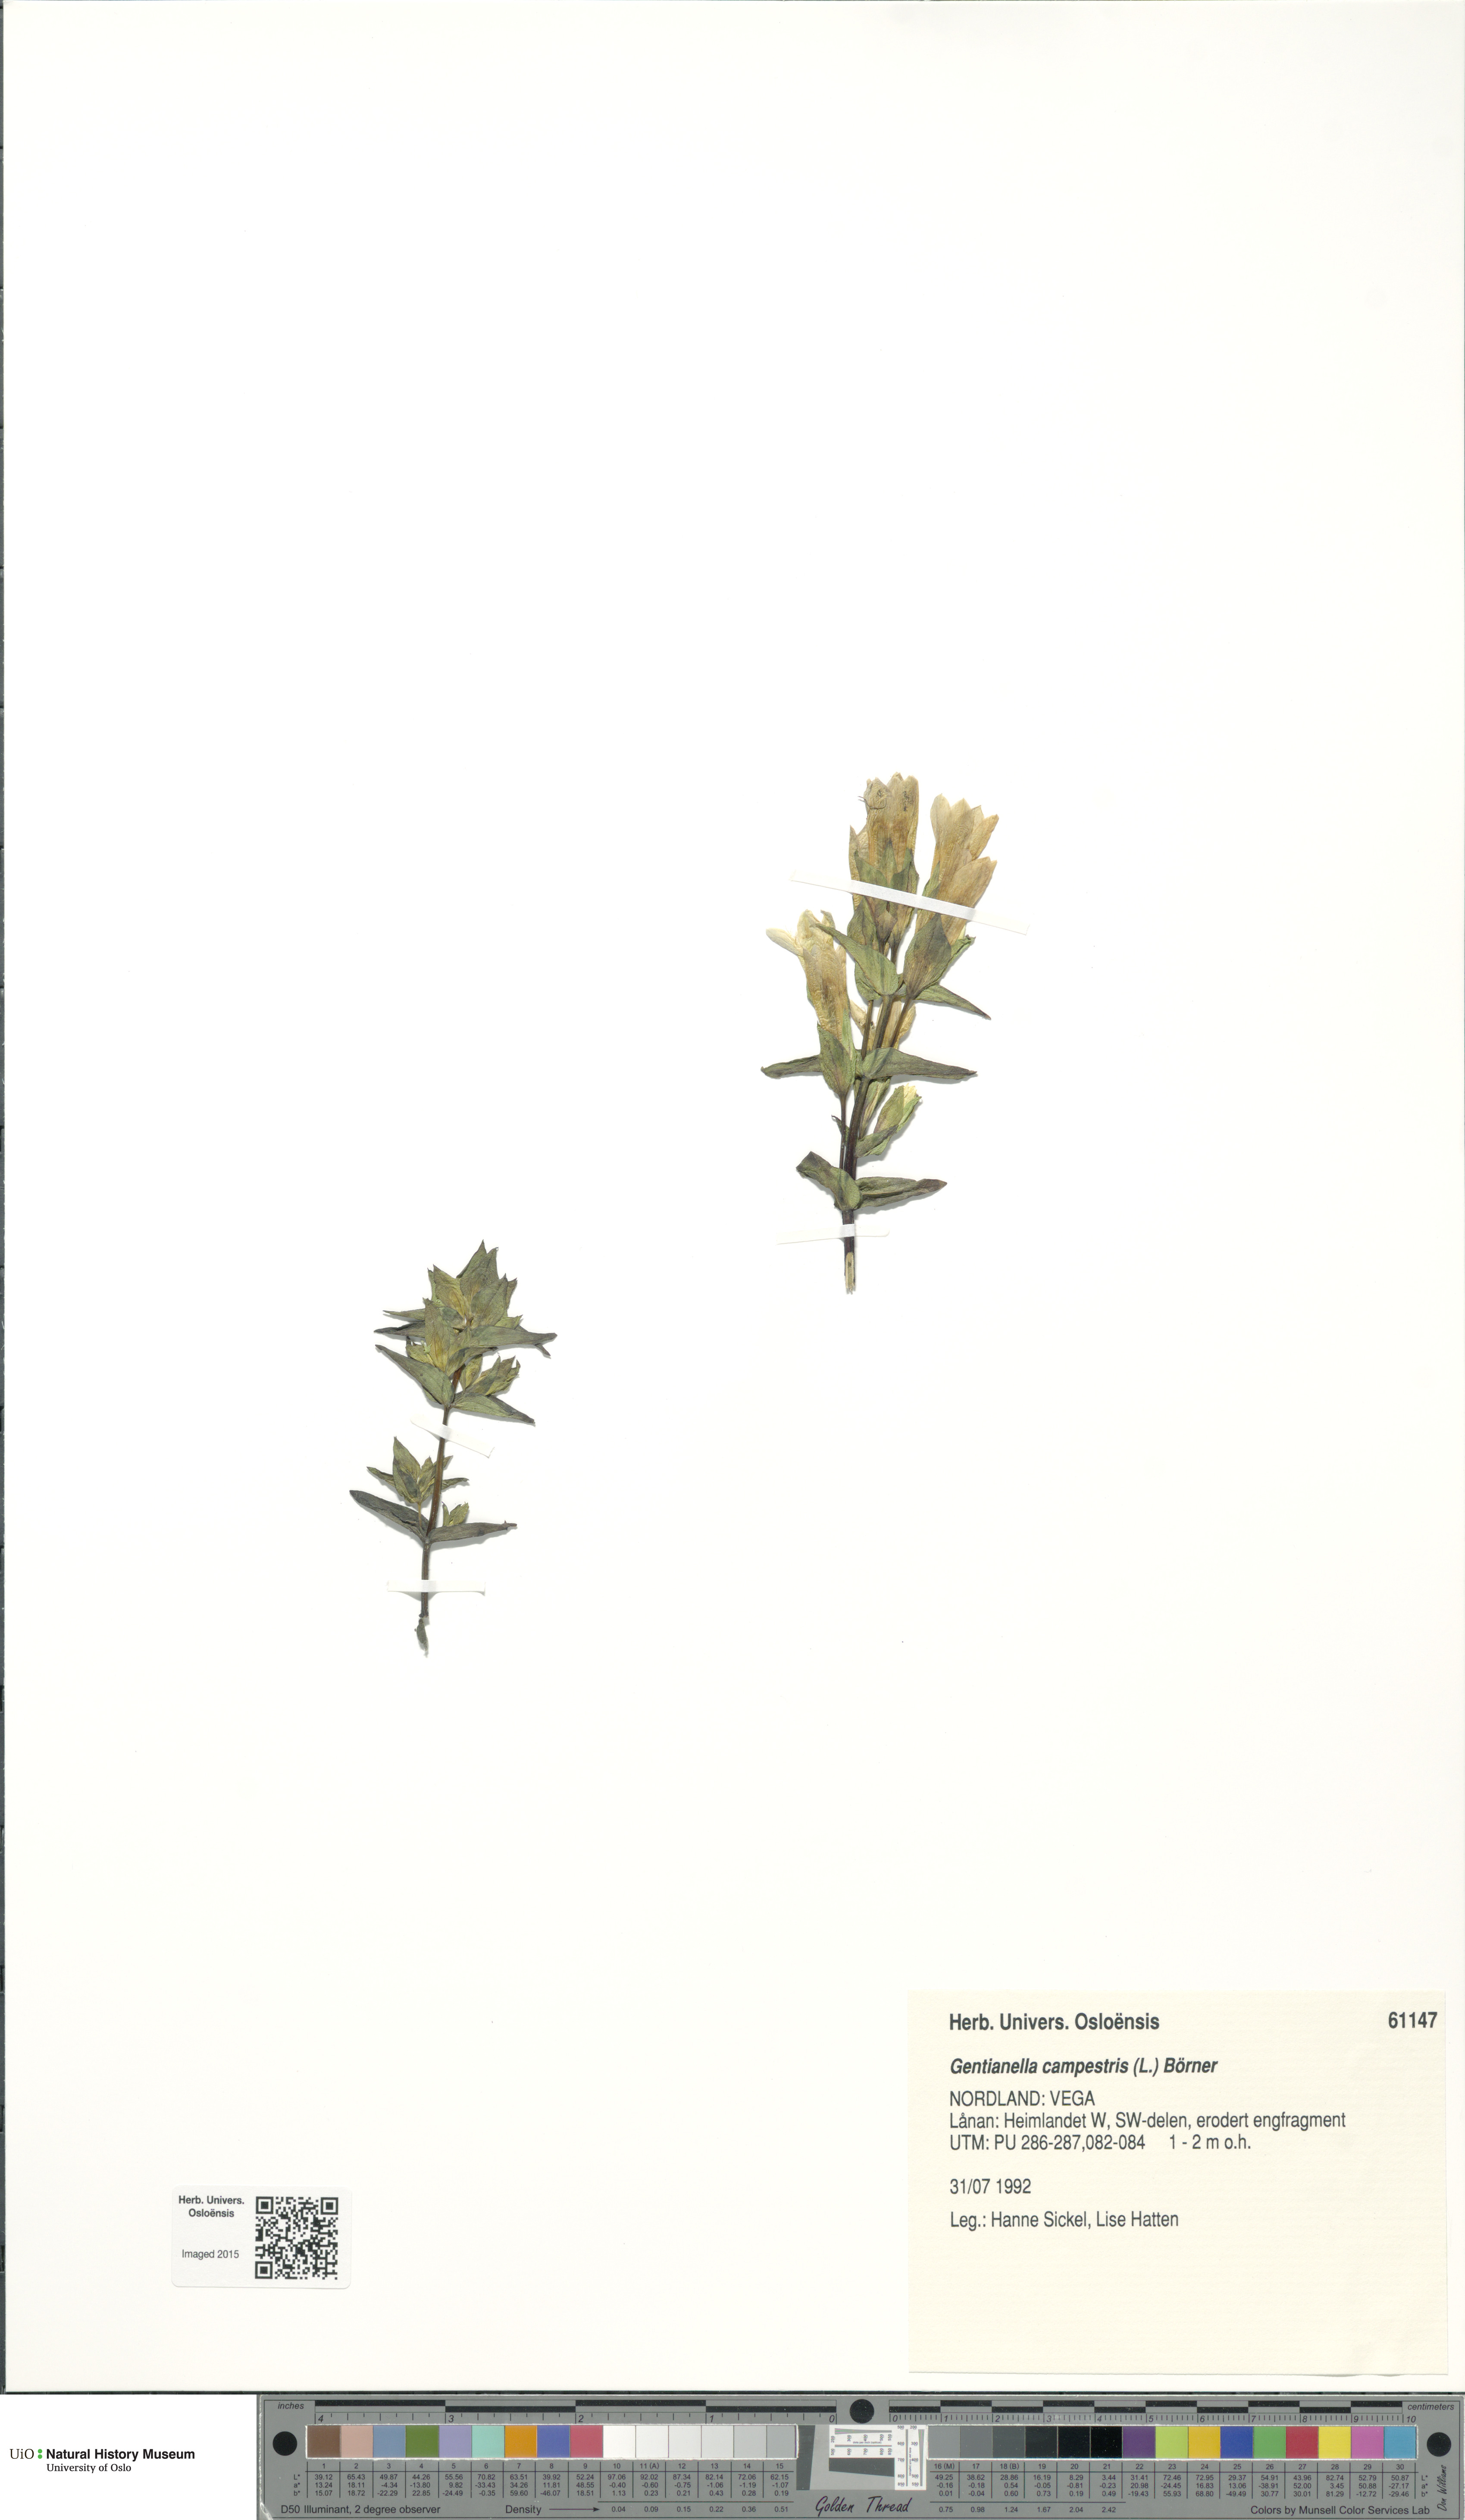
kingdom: Plantae
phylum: Tracheophyta
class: Magnoliopsida
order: Gentianales
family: Gentianaceae
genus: Gentianella
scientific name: Gentianella campestris
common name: Field gentian
